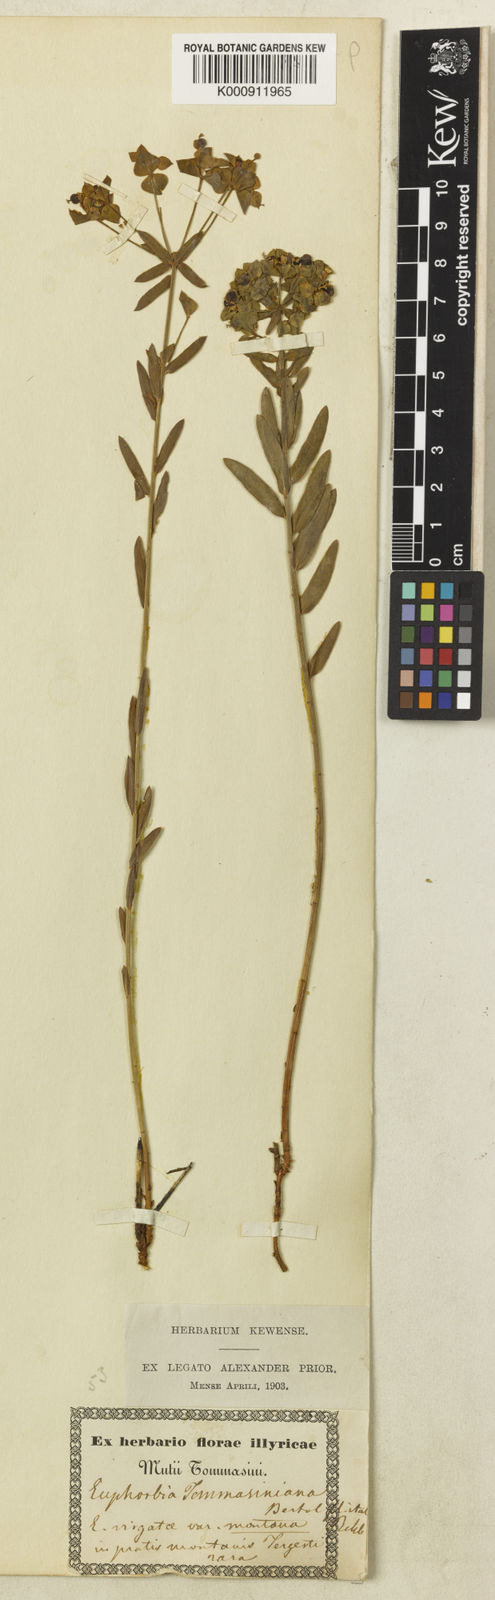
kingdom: Plantae
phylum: Tracheophyta
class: Magnoliopsida
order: Malpighiales
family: Euphorbiaceae
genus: Euphorbia
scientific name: Euphorbia tommasiniana
